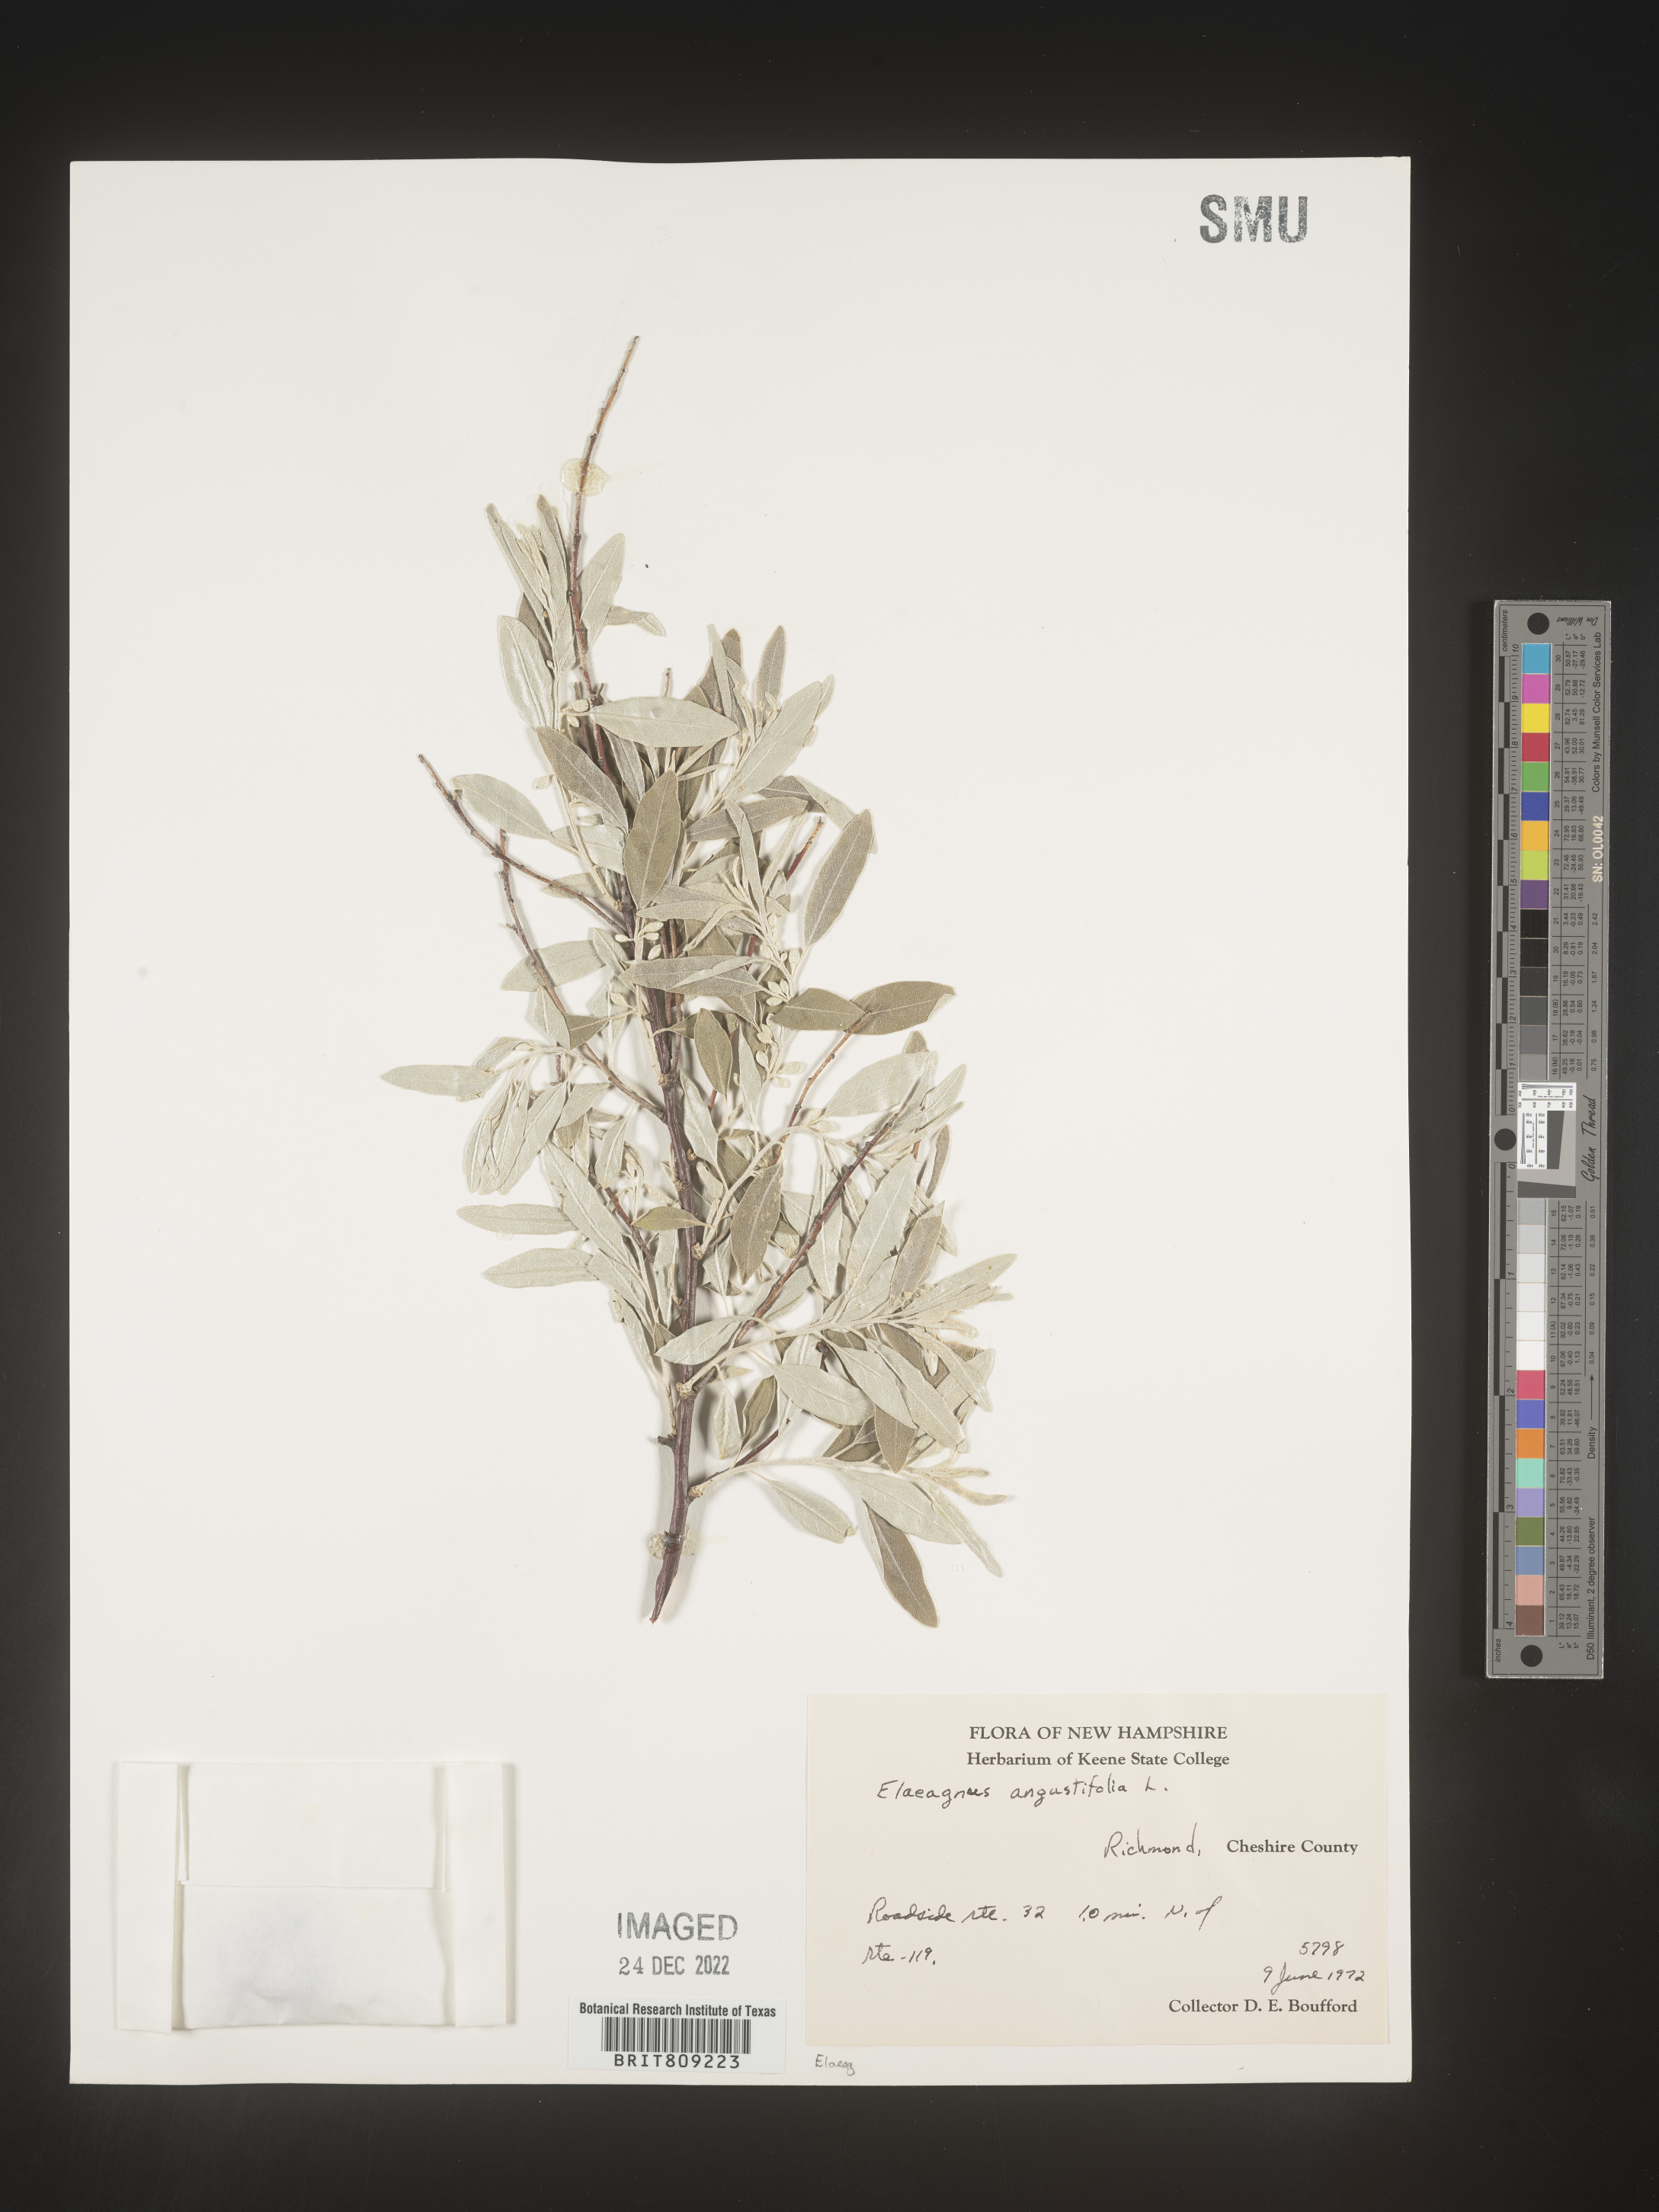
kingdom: Plantae
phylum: Tracheophyta
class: Magnoliopsida
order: Rosales
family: Elaeagnaceae
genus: Elaeagnus
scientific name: Elaeagnus angustifolia
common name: Russian olive
